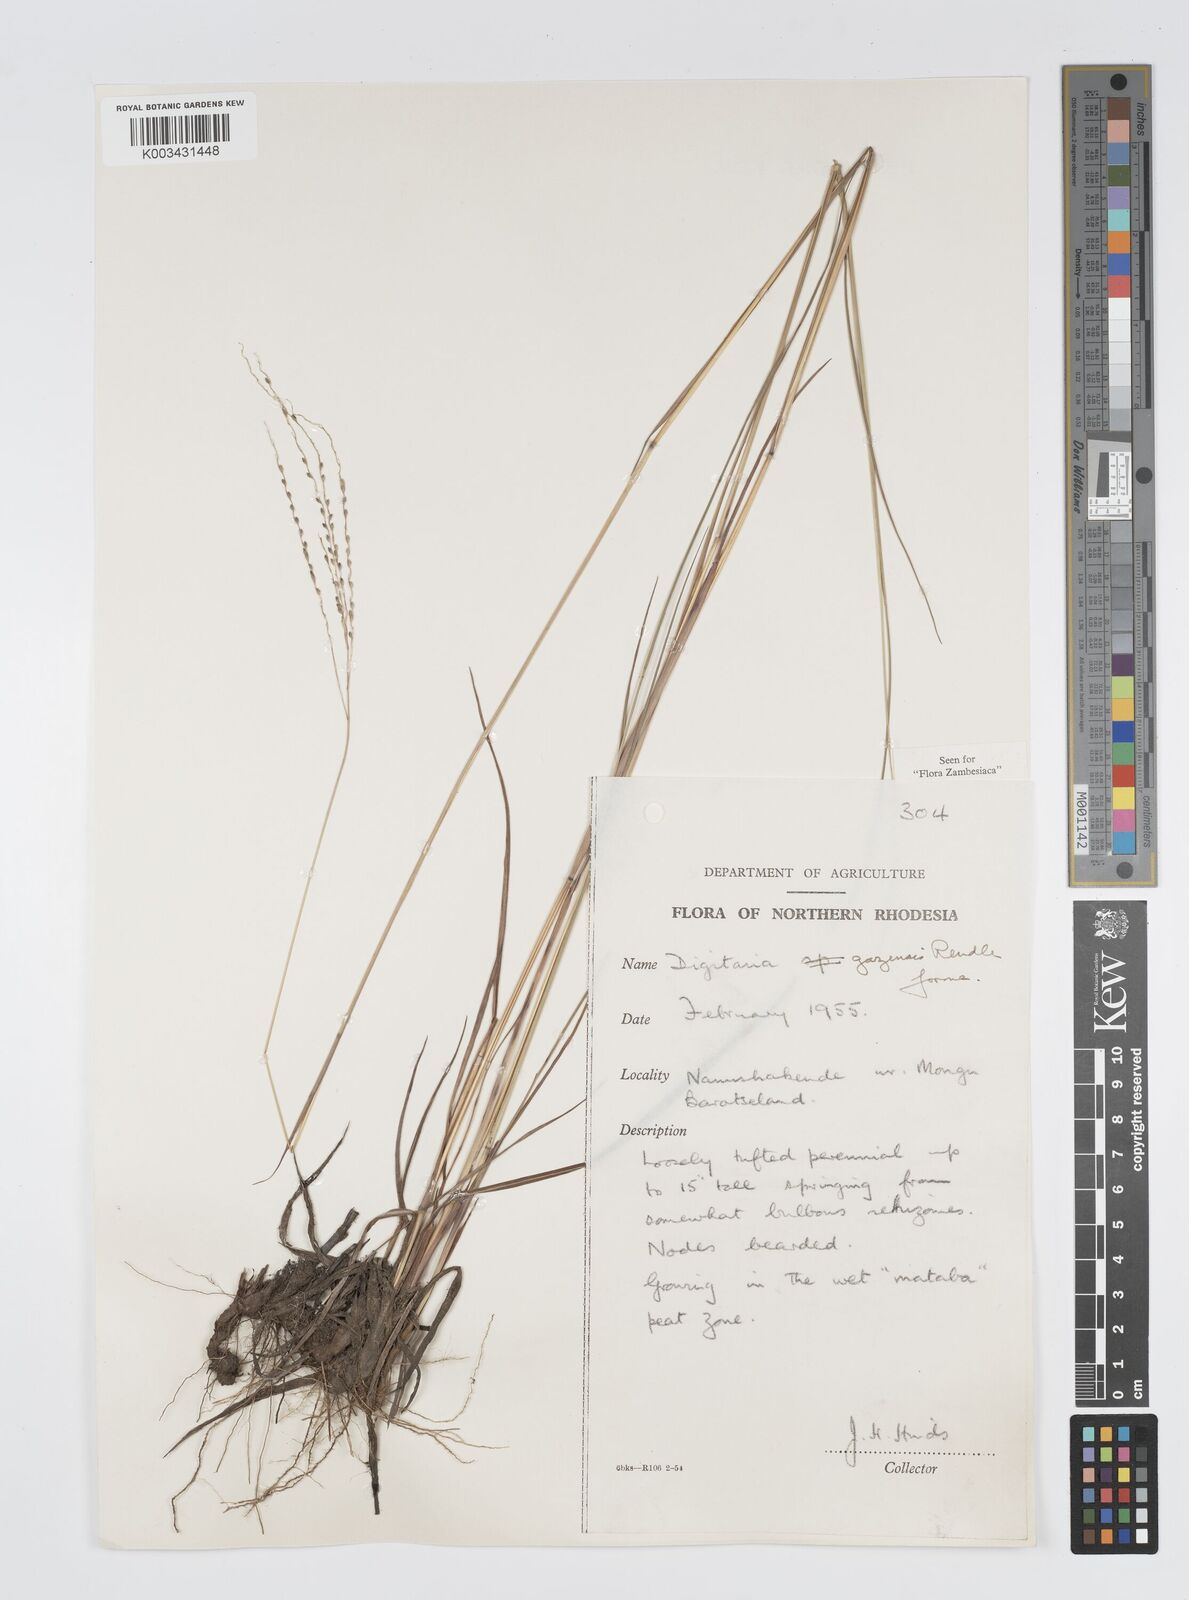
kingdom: Plantae
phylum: Tracheophyta
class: Liliopsida
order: Poales
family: Poaceae
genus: Digitaria
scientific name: Digitaria gazensis
